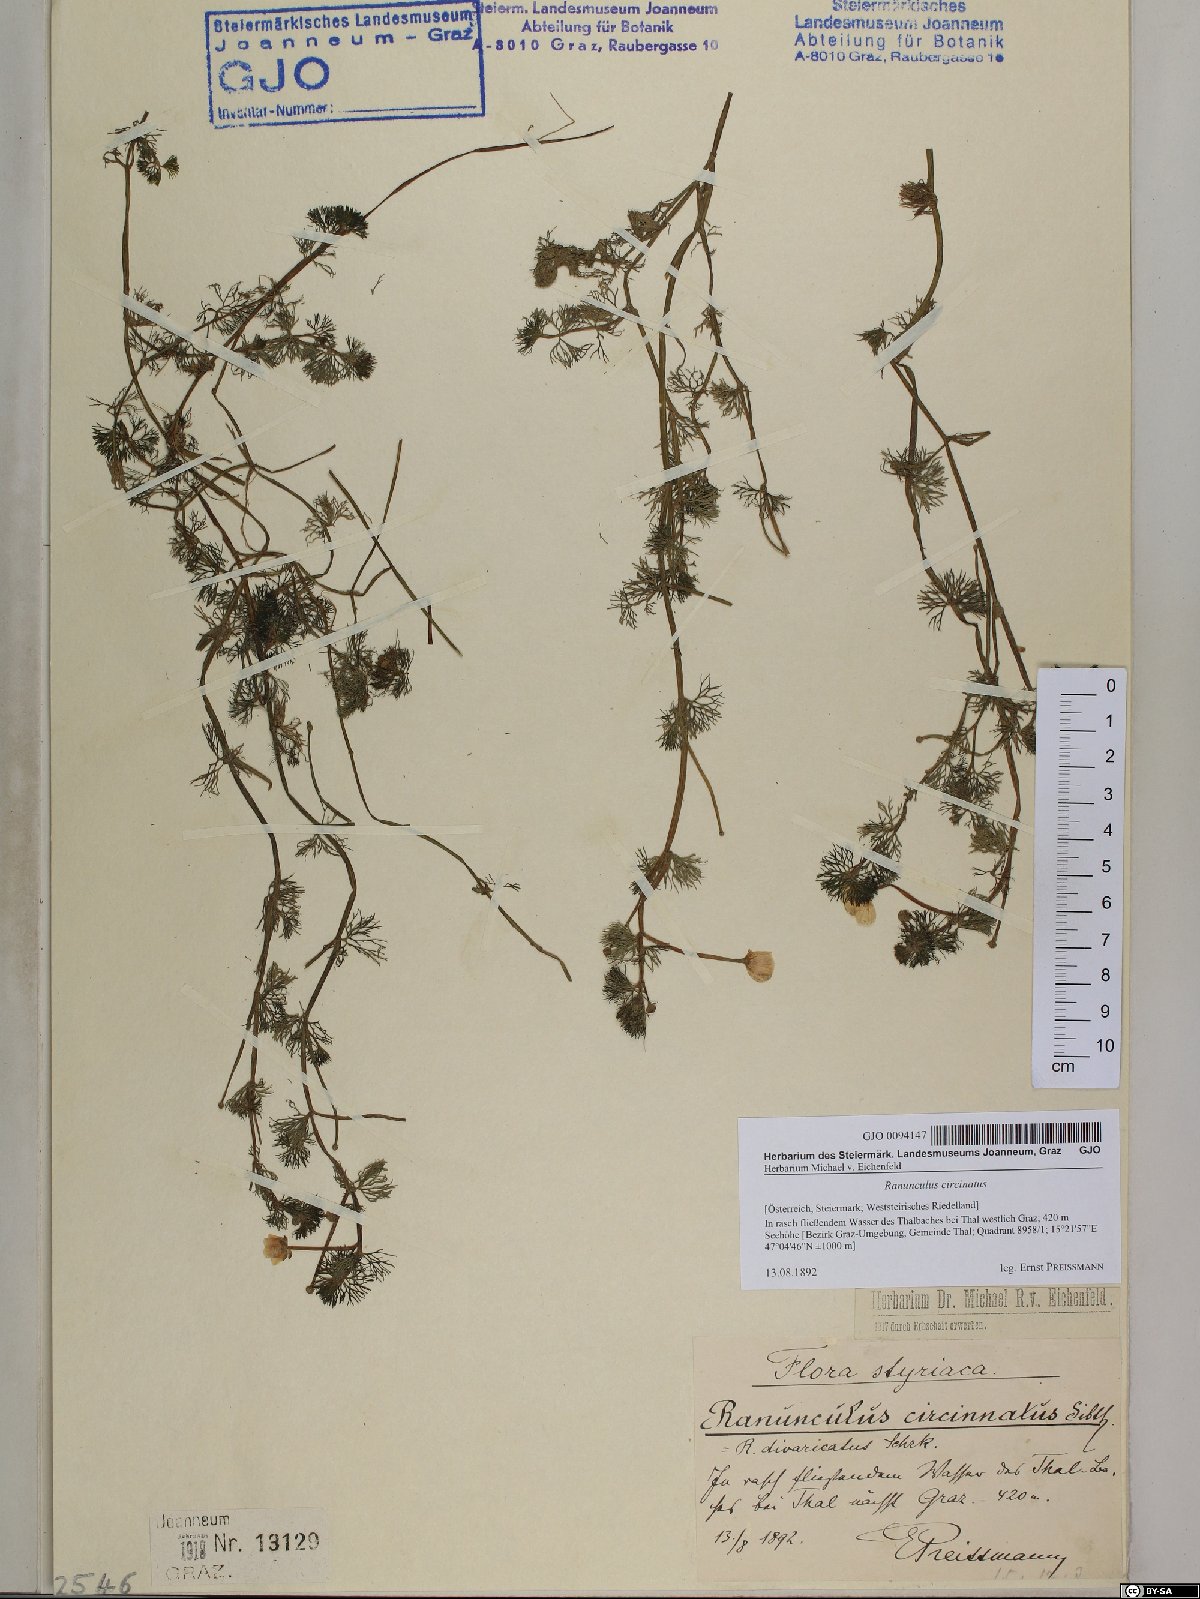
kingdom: Plantae
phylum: Tracheophyta
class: Magnoliopsida
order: Ranunculales
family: Ranunculaceae
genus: Ranunculus
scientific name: Ranunculus circinatus
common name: Fan-leaved water-crowfoot
